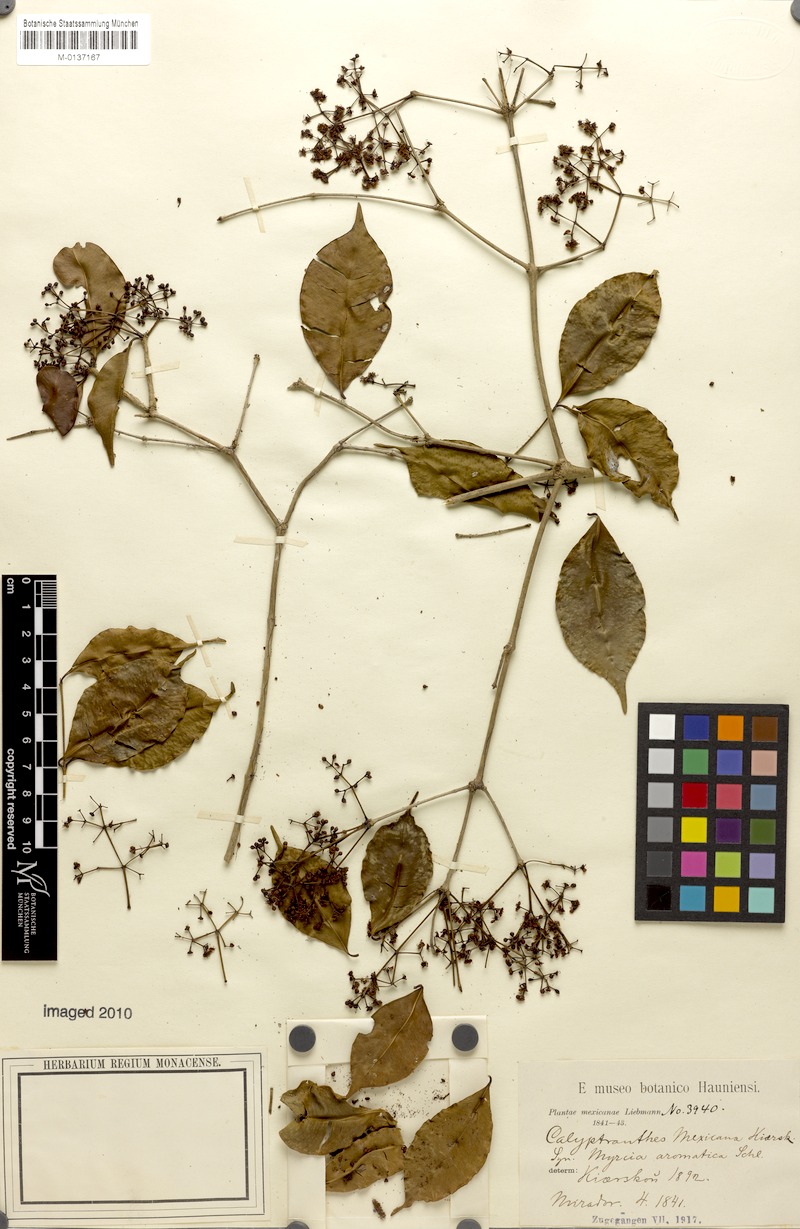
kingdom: Plantae
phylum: Tracheophyta
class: Magnoliopsida
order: Myrtales
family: Myrtaceae
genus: Myrcia
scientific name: Myrcia schiedeana
